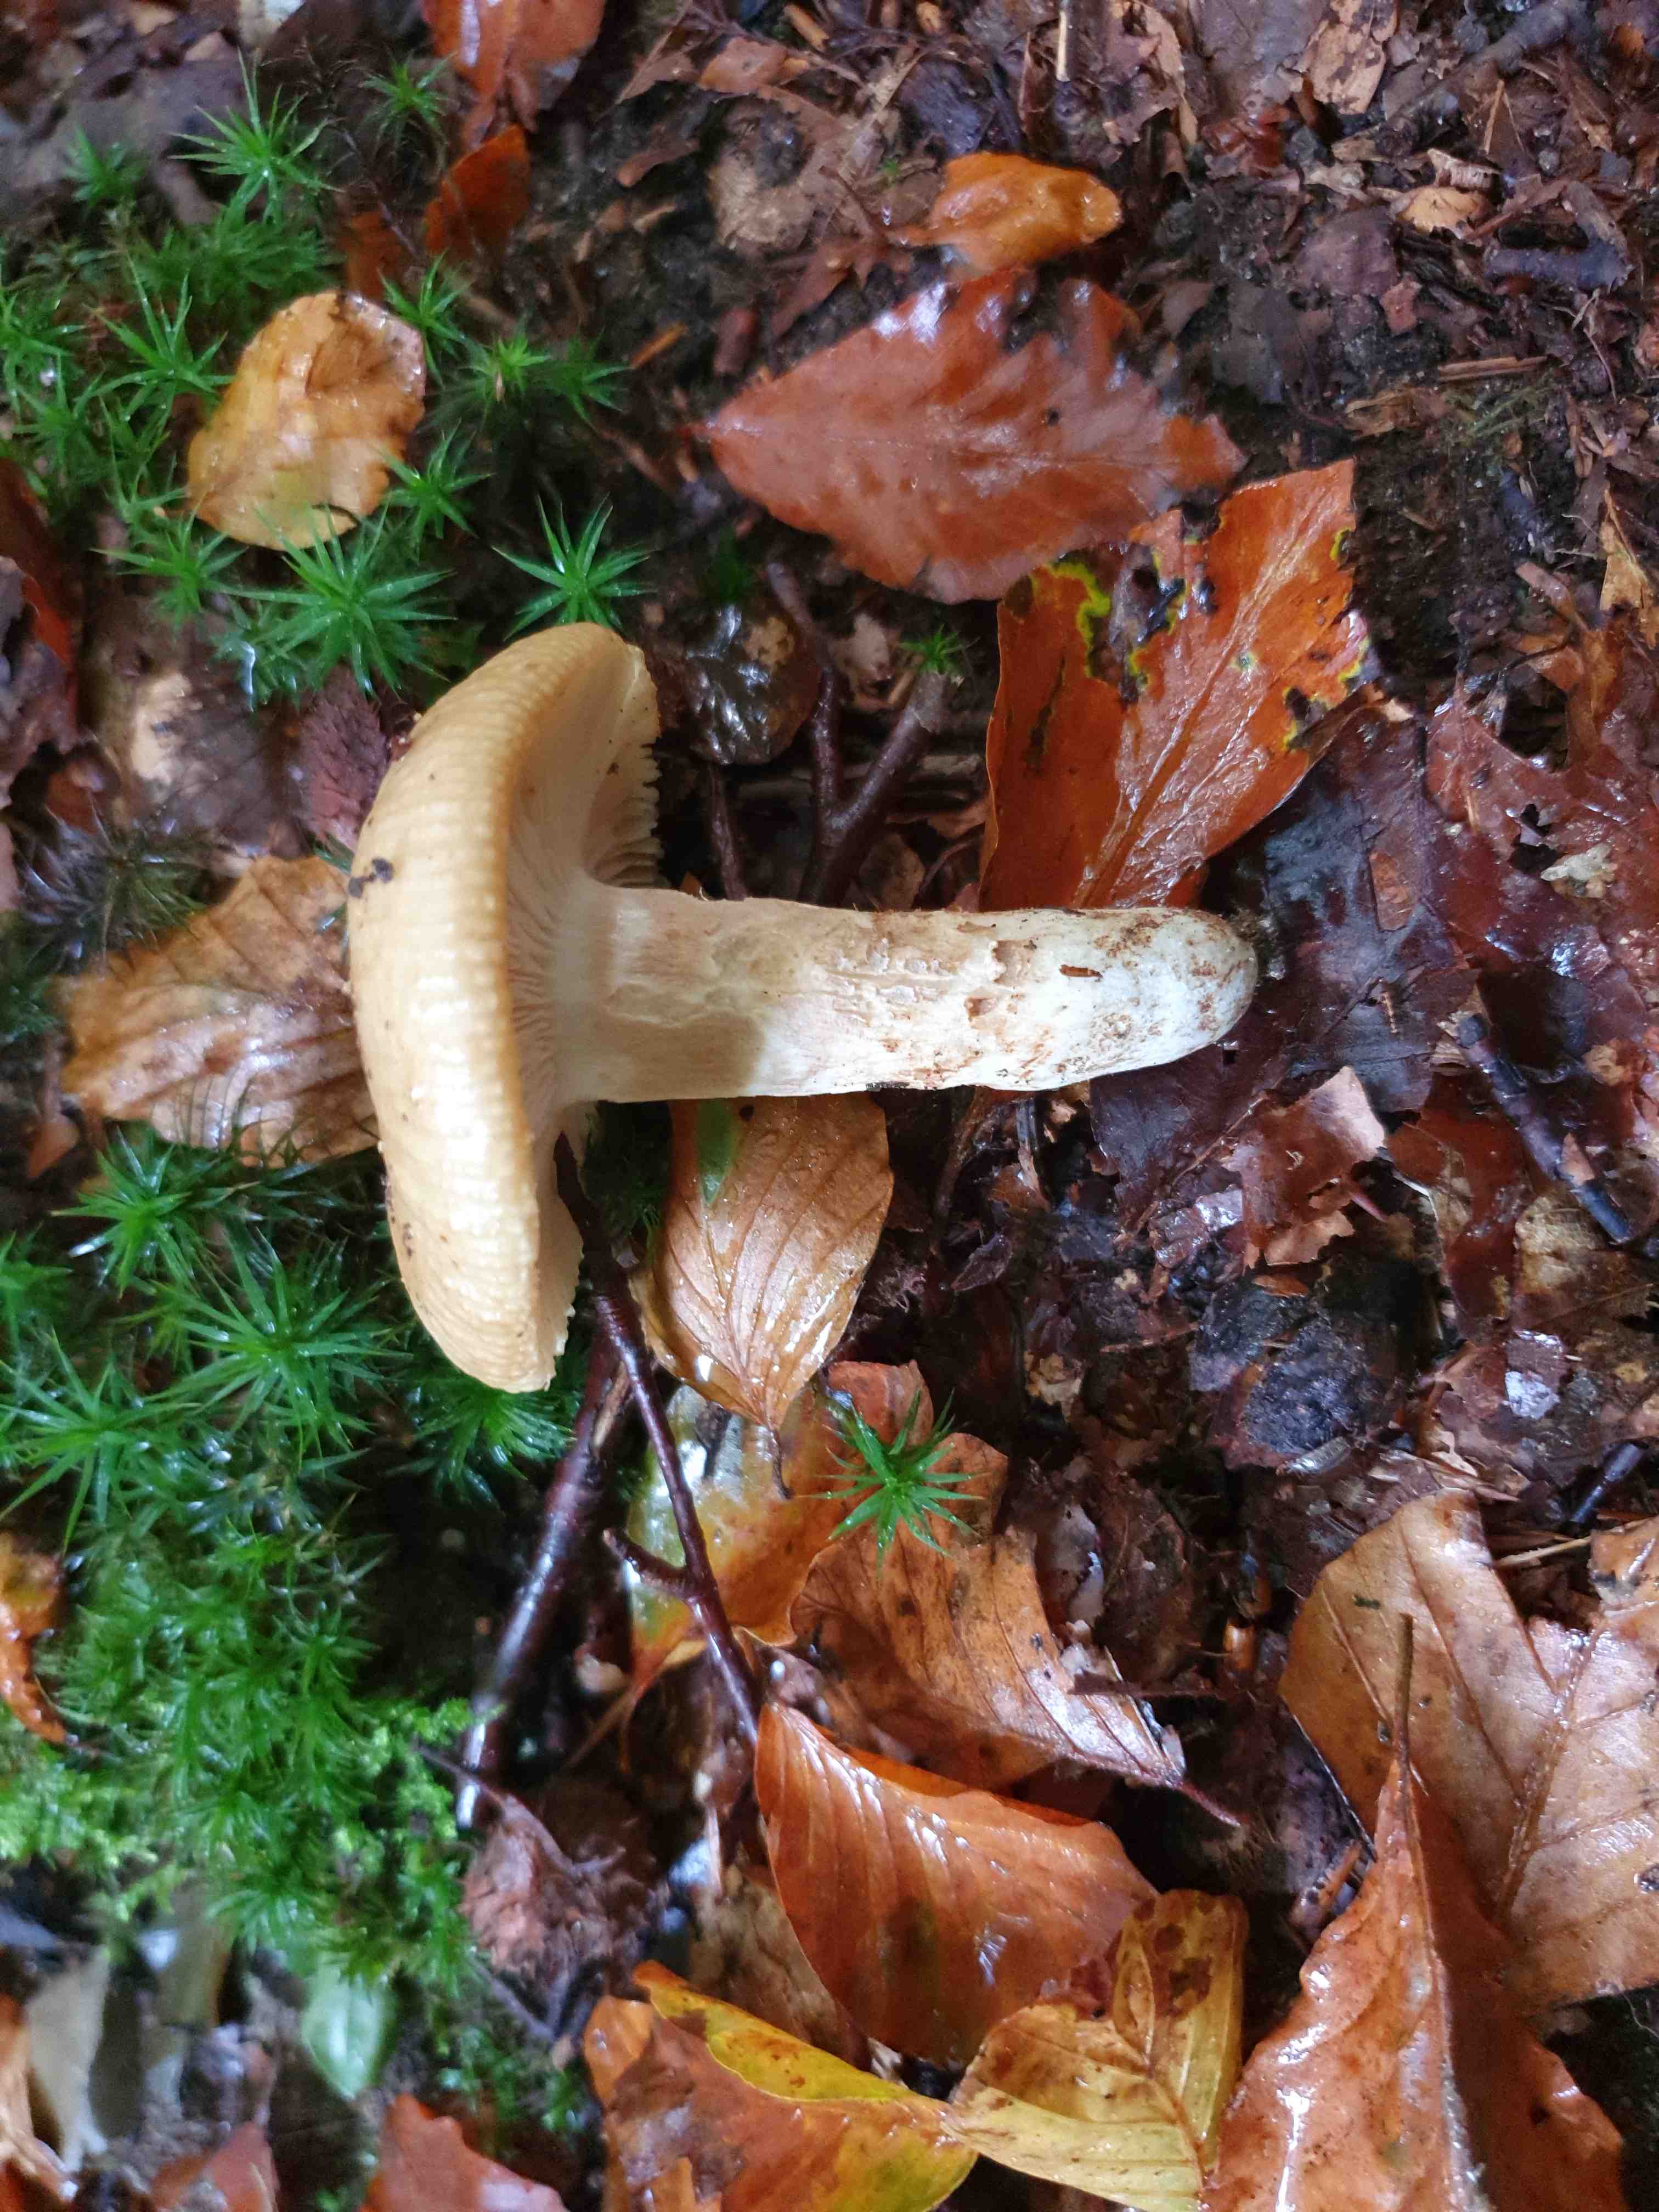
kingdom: Fungi
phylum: Basidiomycota
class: Agaricomycetes
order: Russulales
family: Russulaceae
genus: Russula
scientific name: Russula
